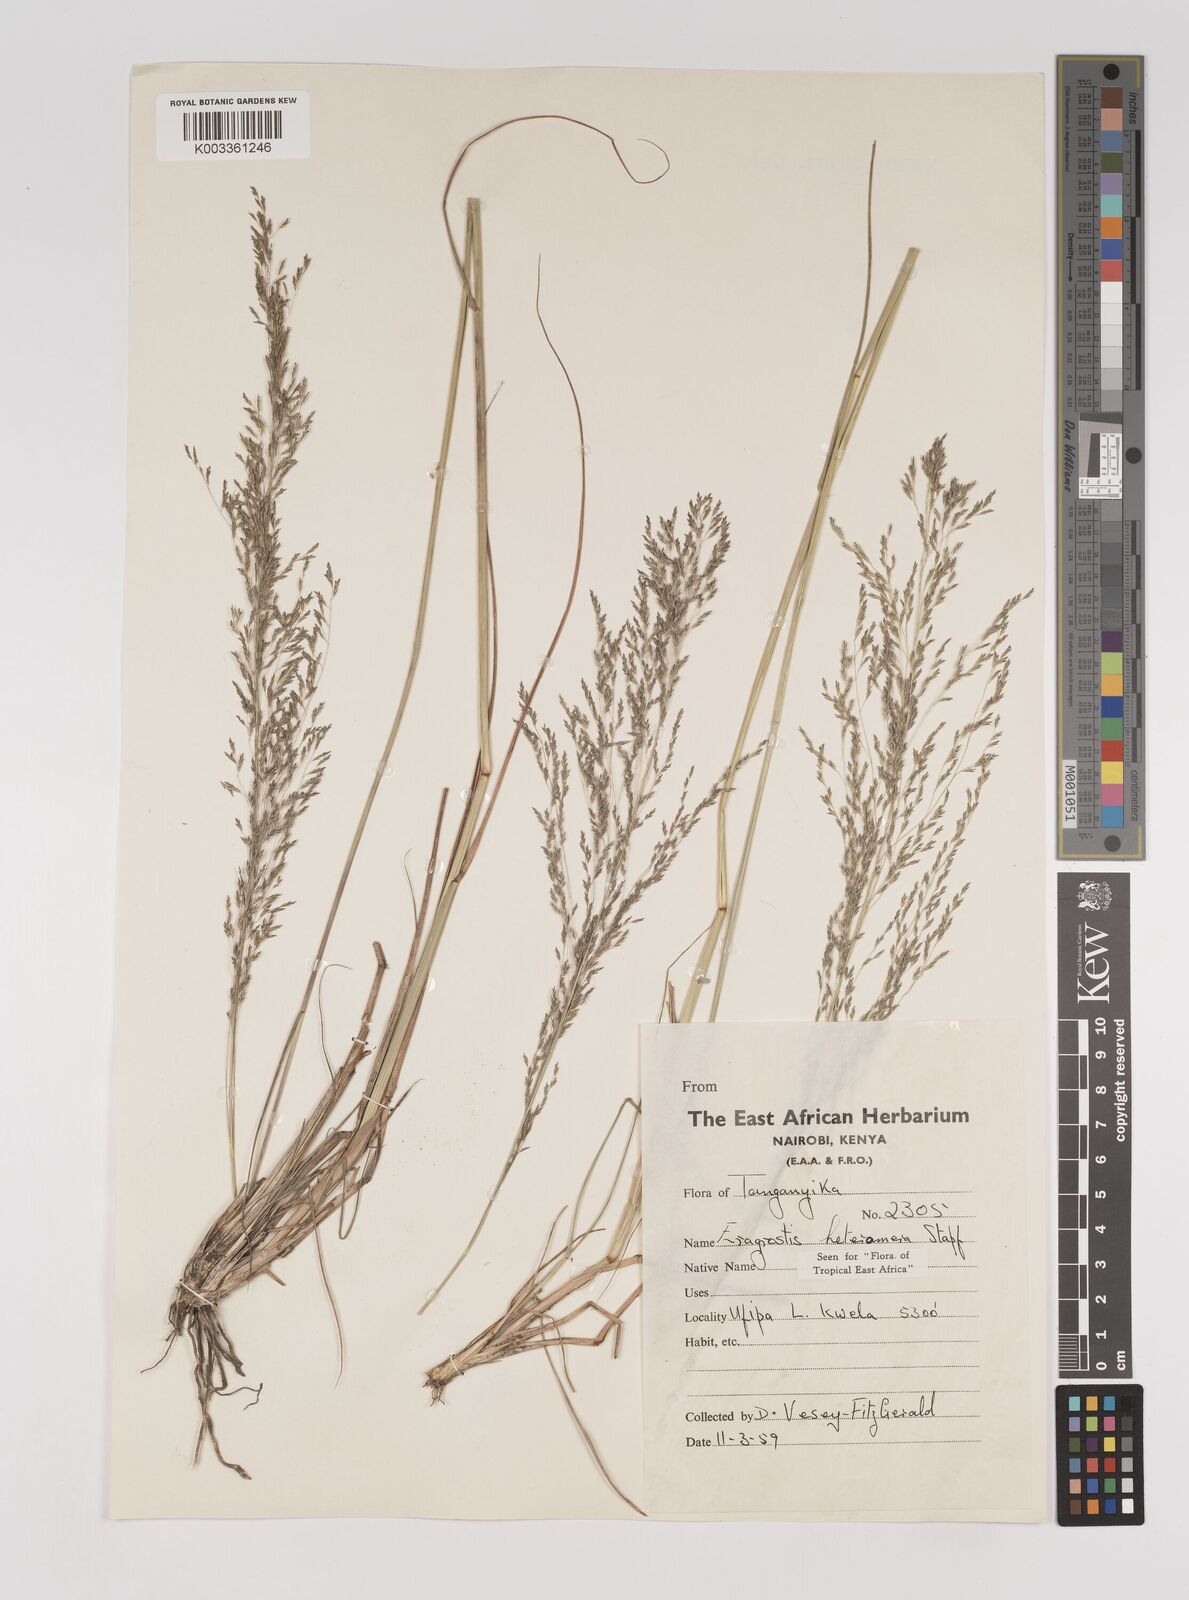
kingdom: Plantae
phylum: Tracheophyta
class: Liliopsida
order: Poales
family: Poaceae
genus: Eragrostis
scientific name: Eragrostis heteromera
